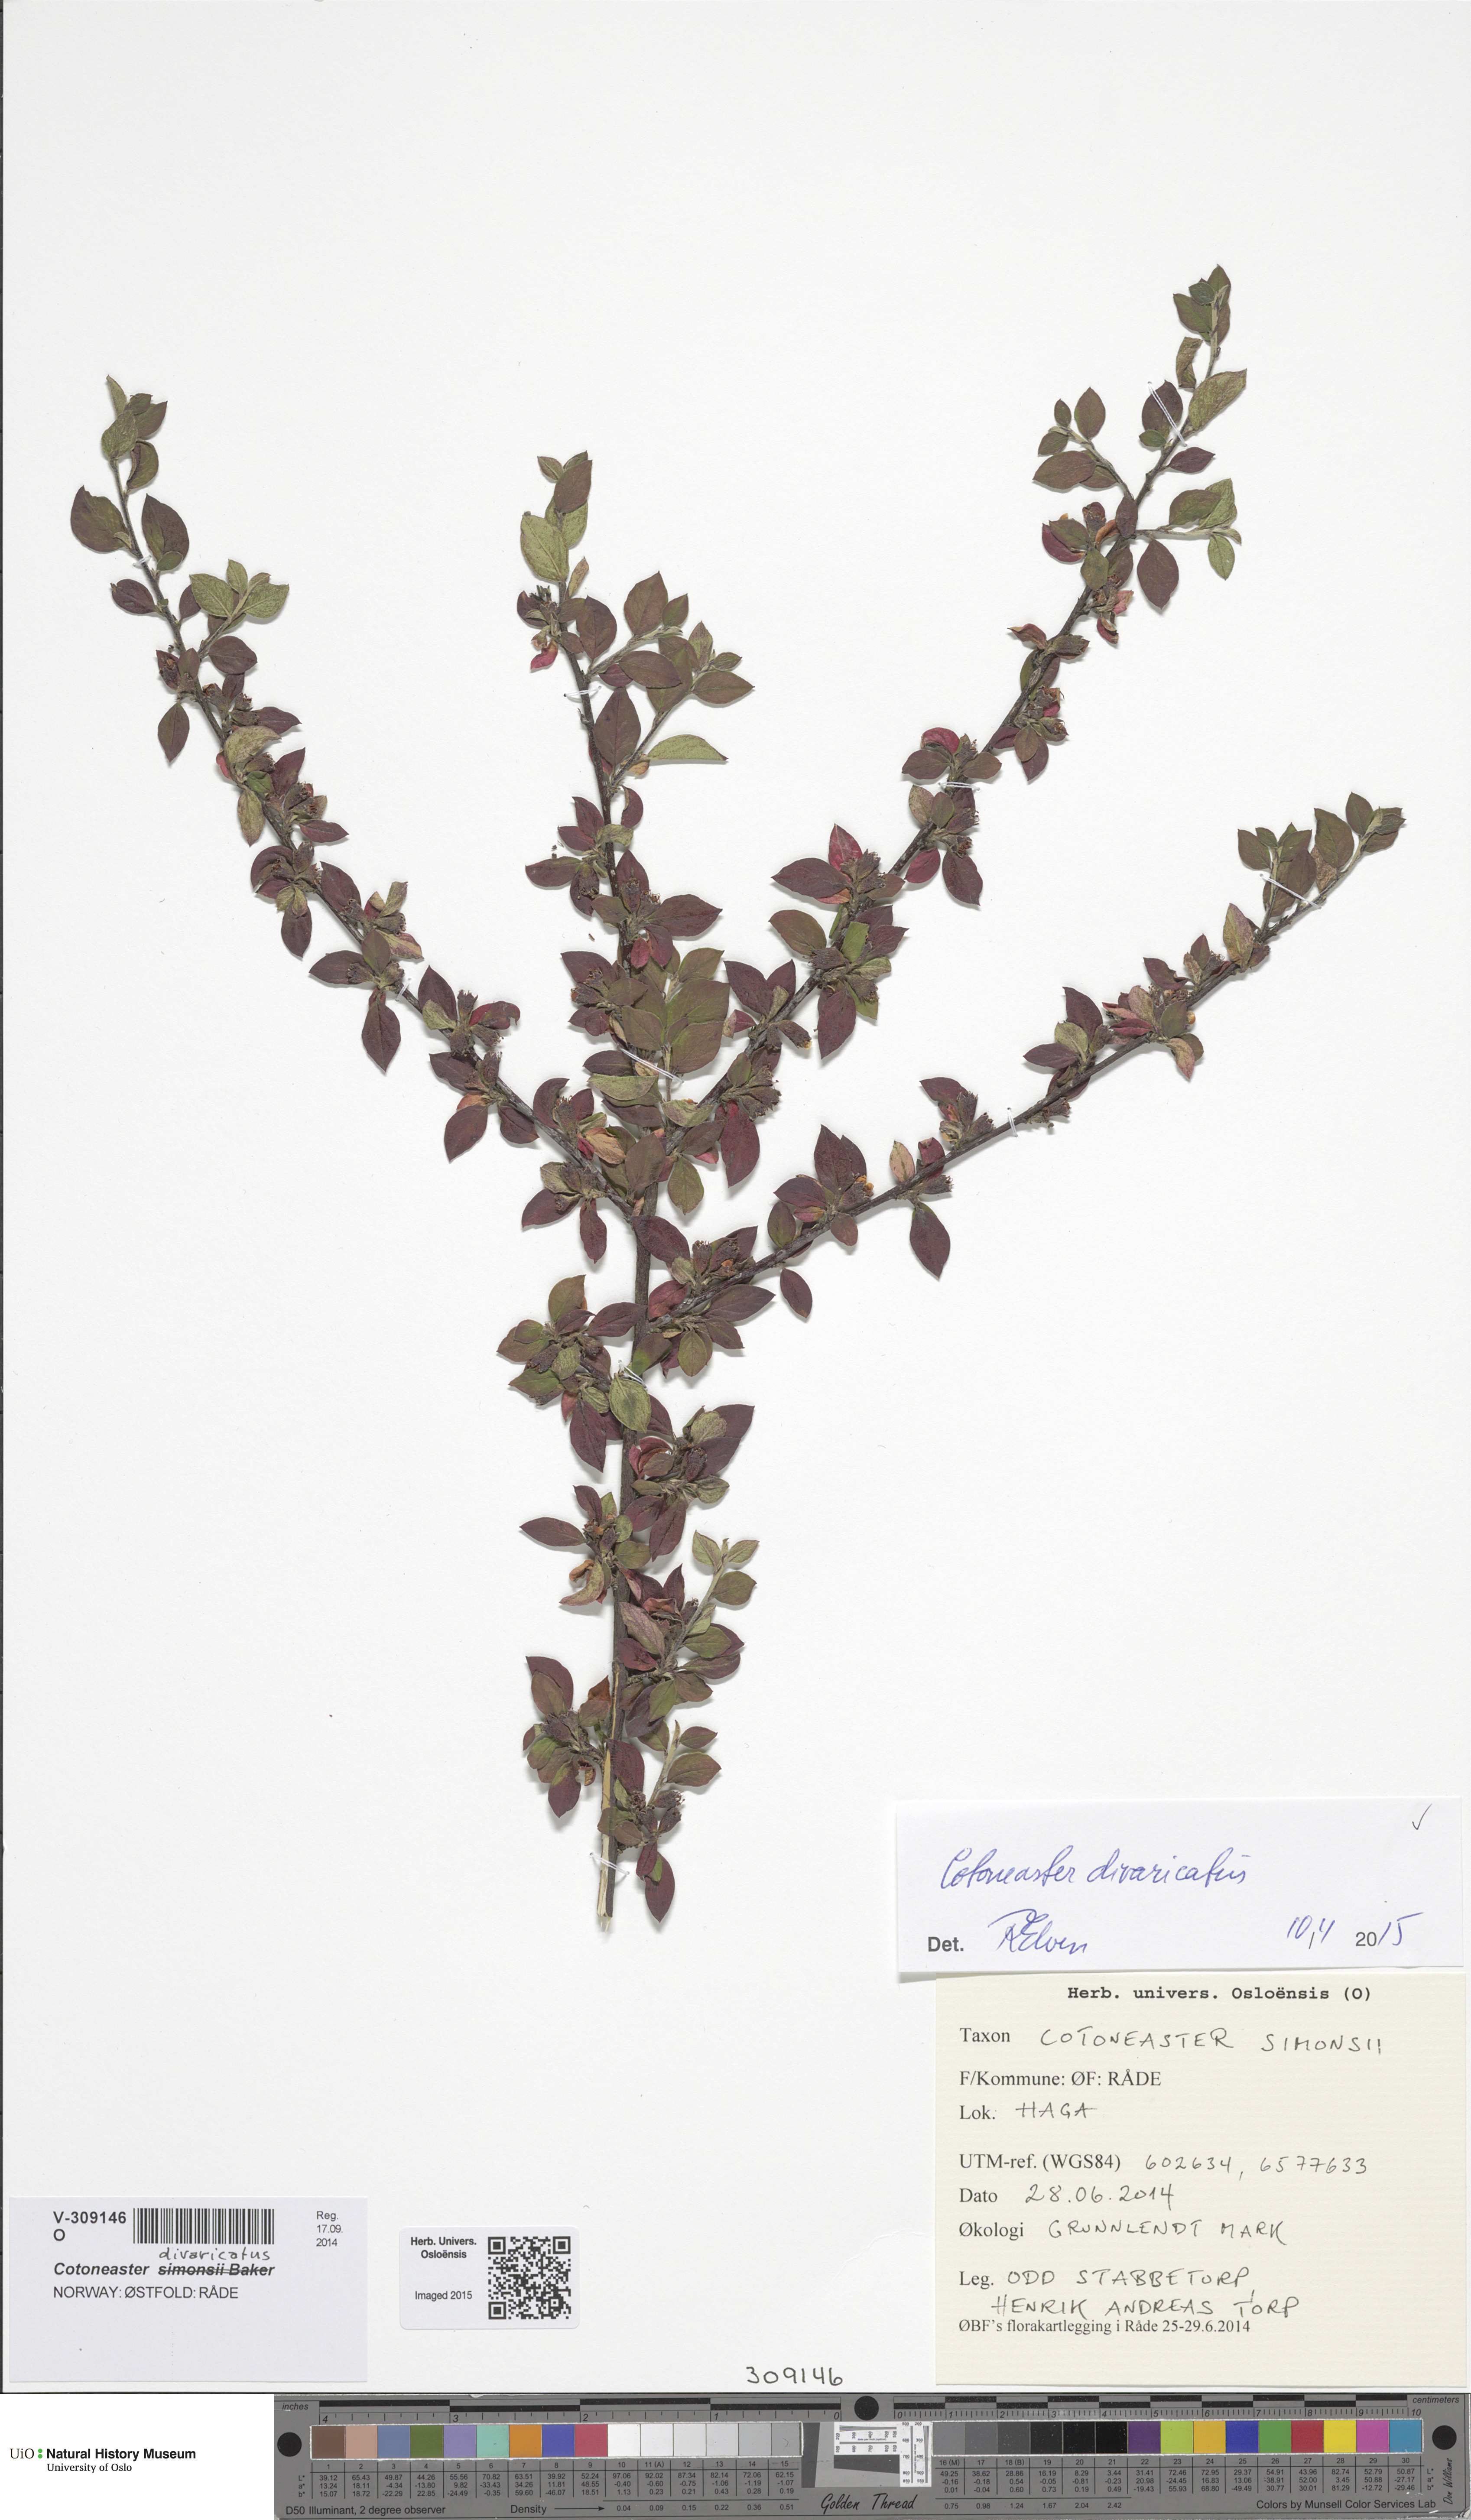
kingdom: Plantae
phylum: Tracheophyta
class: Magnoliopsida
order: Rosales
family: Rosaceae
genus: Cotoneaster
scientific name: Cotoneaster divaricatus
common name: Spreading cotoneaster
